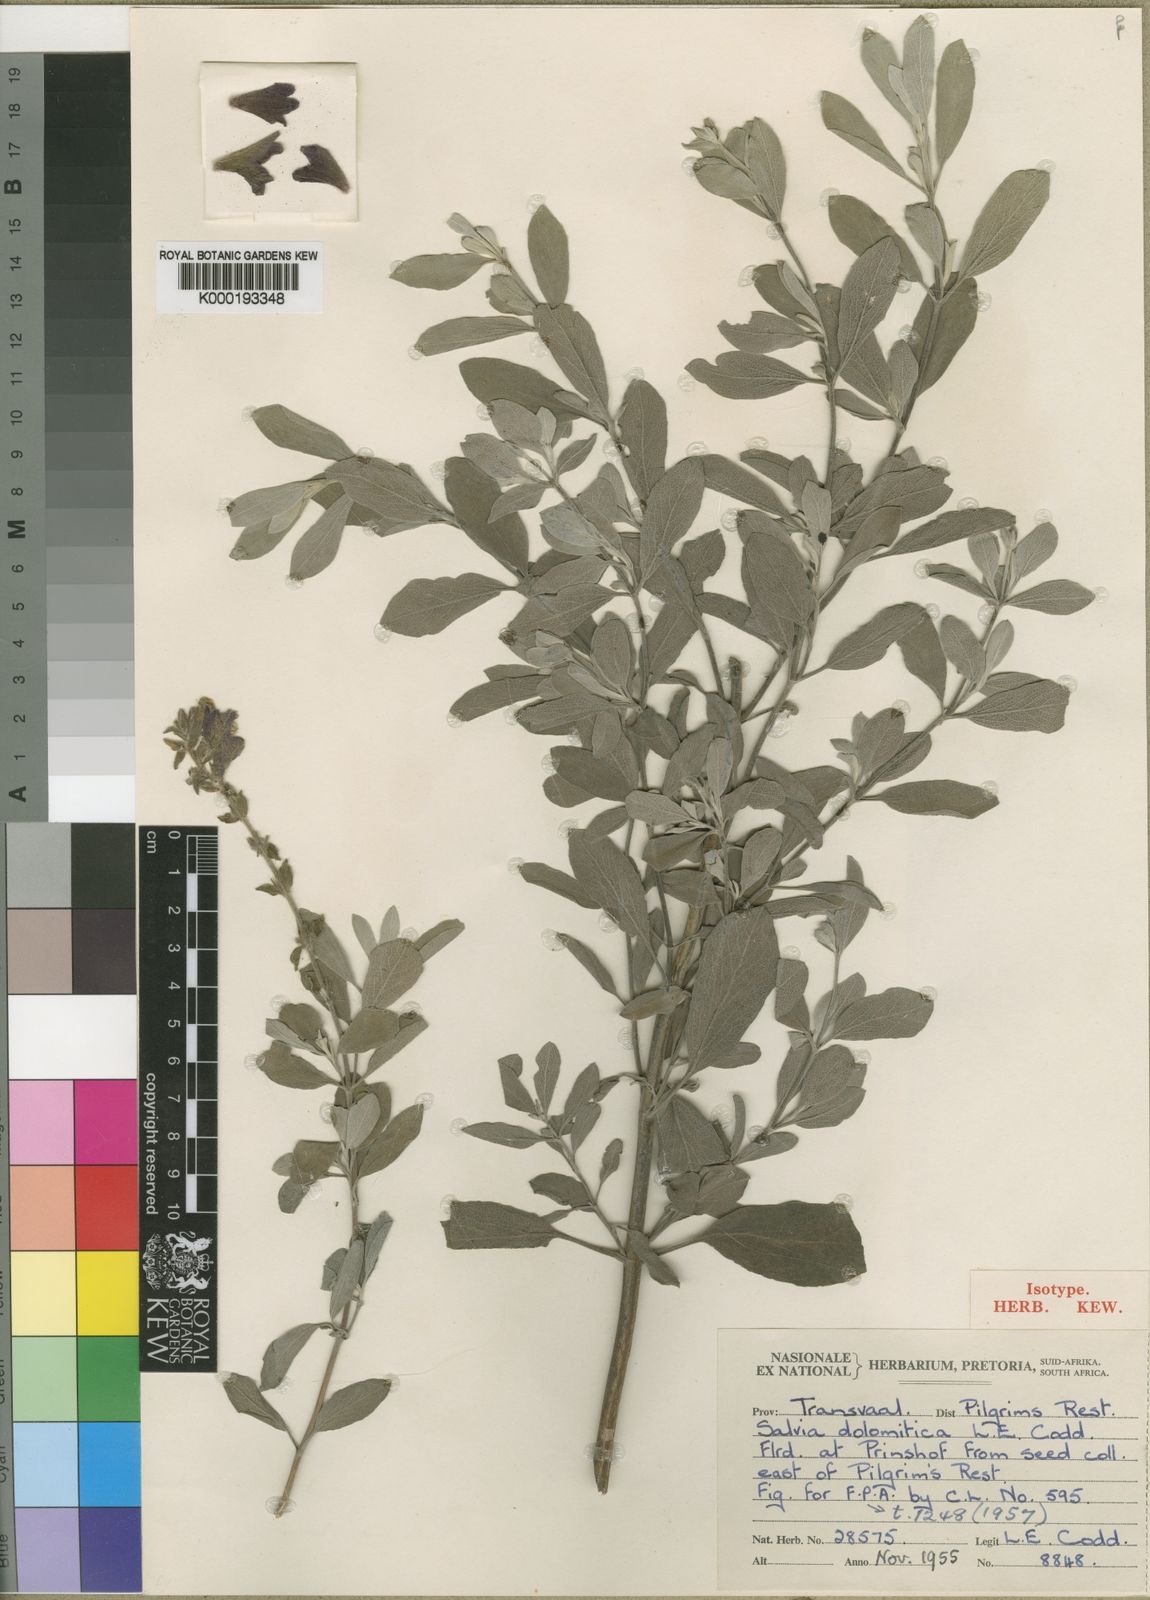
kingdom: Plantae
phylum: Tracheophyta
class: Magnoliopsida
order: Lamiales
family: Lamiaceae
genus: Salvia
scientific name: Salvia dolomitica
